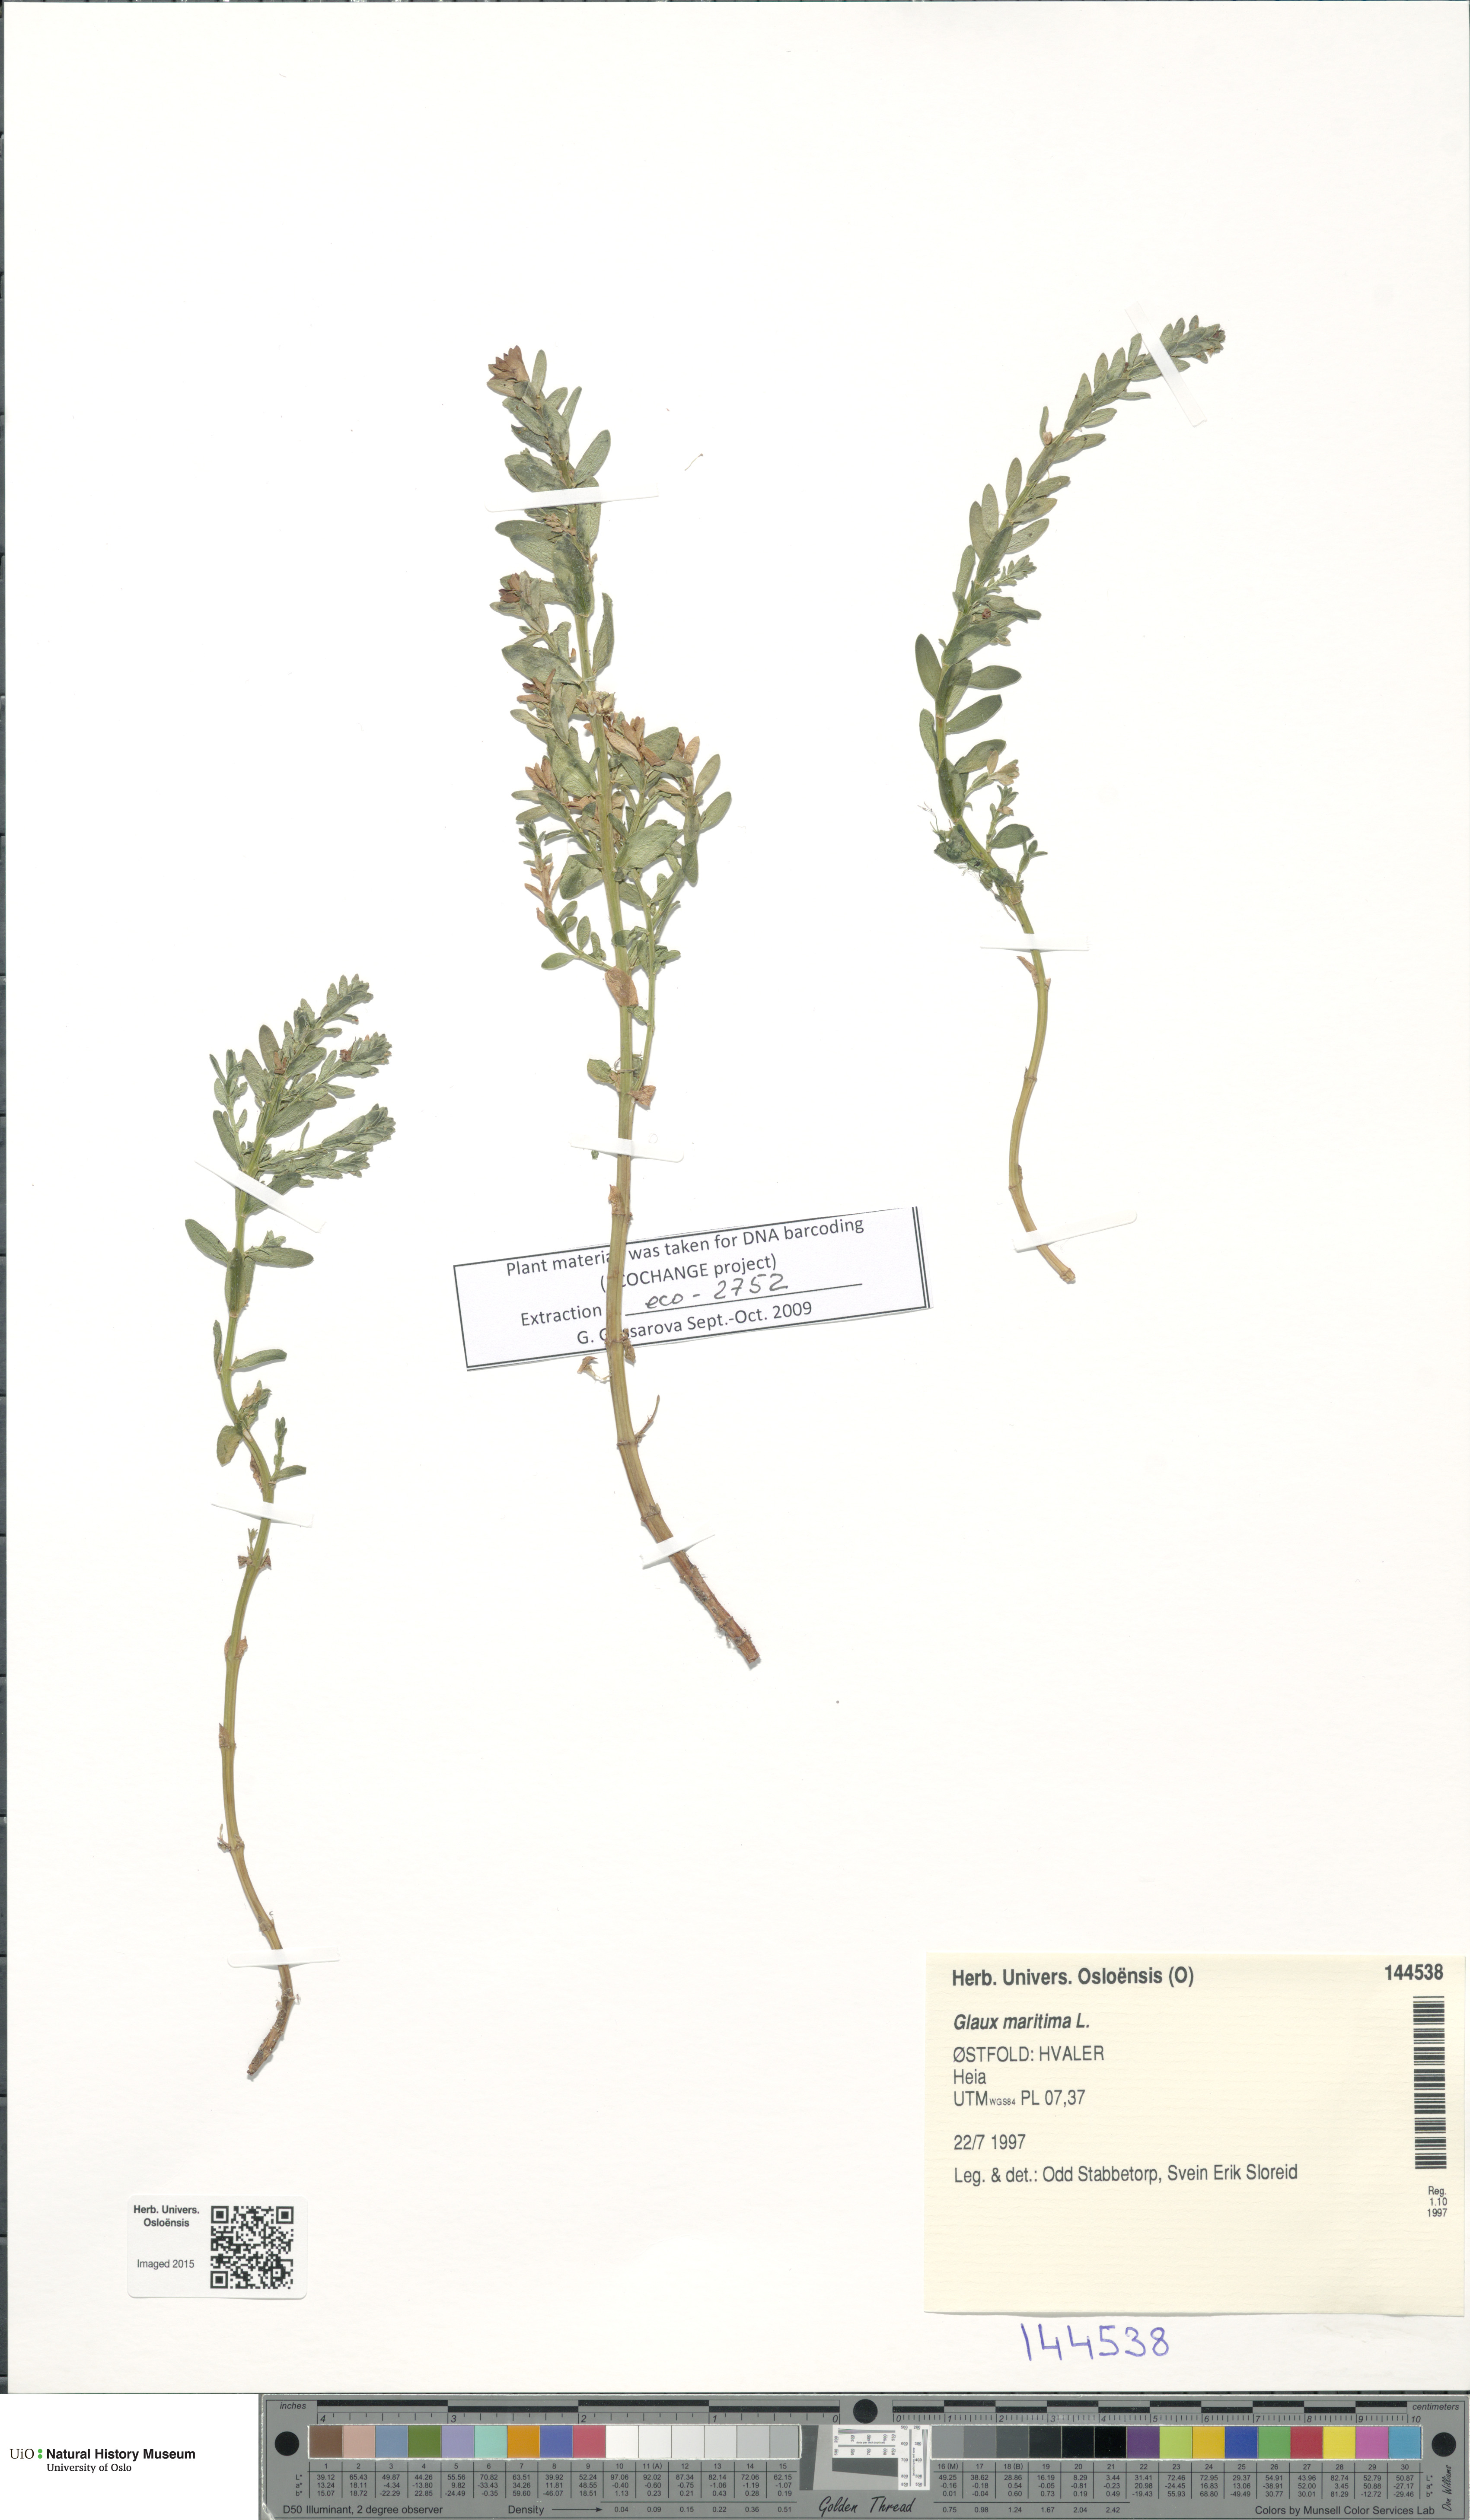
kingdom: Plantae
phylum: Tracheophyta
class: Magnoliopsida
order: Ericales
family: Primulaceae
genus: Lysimachia
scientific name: Lysimachia maritima
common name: Sea milkwort
